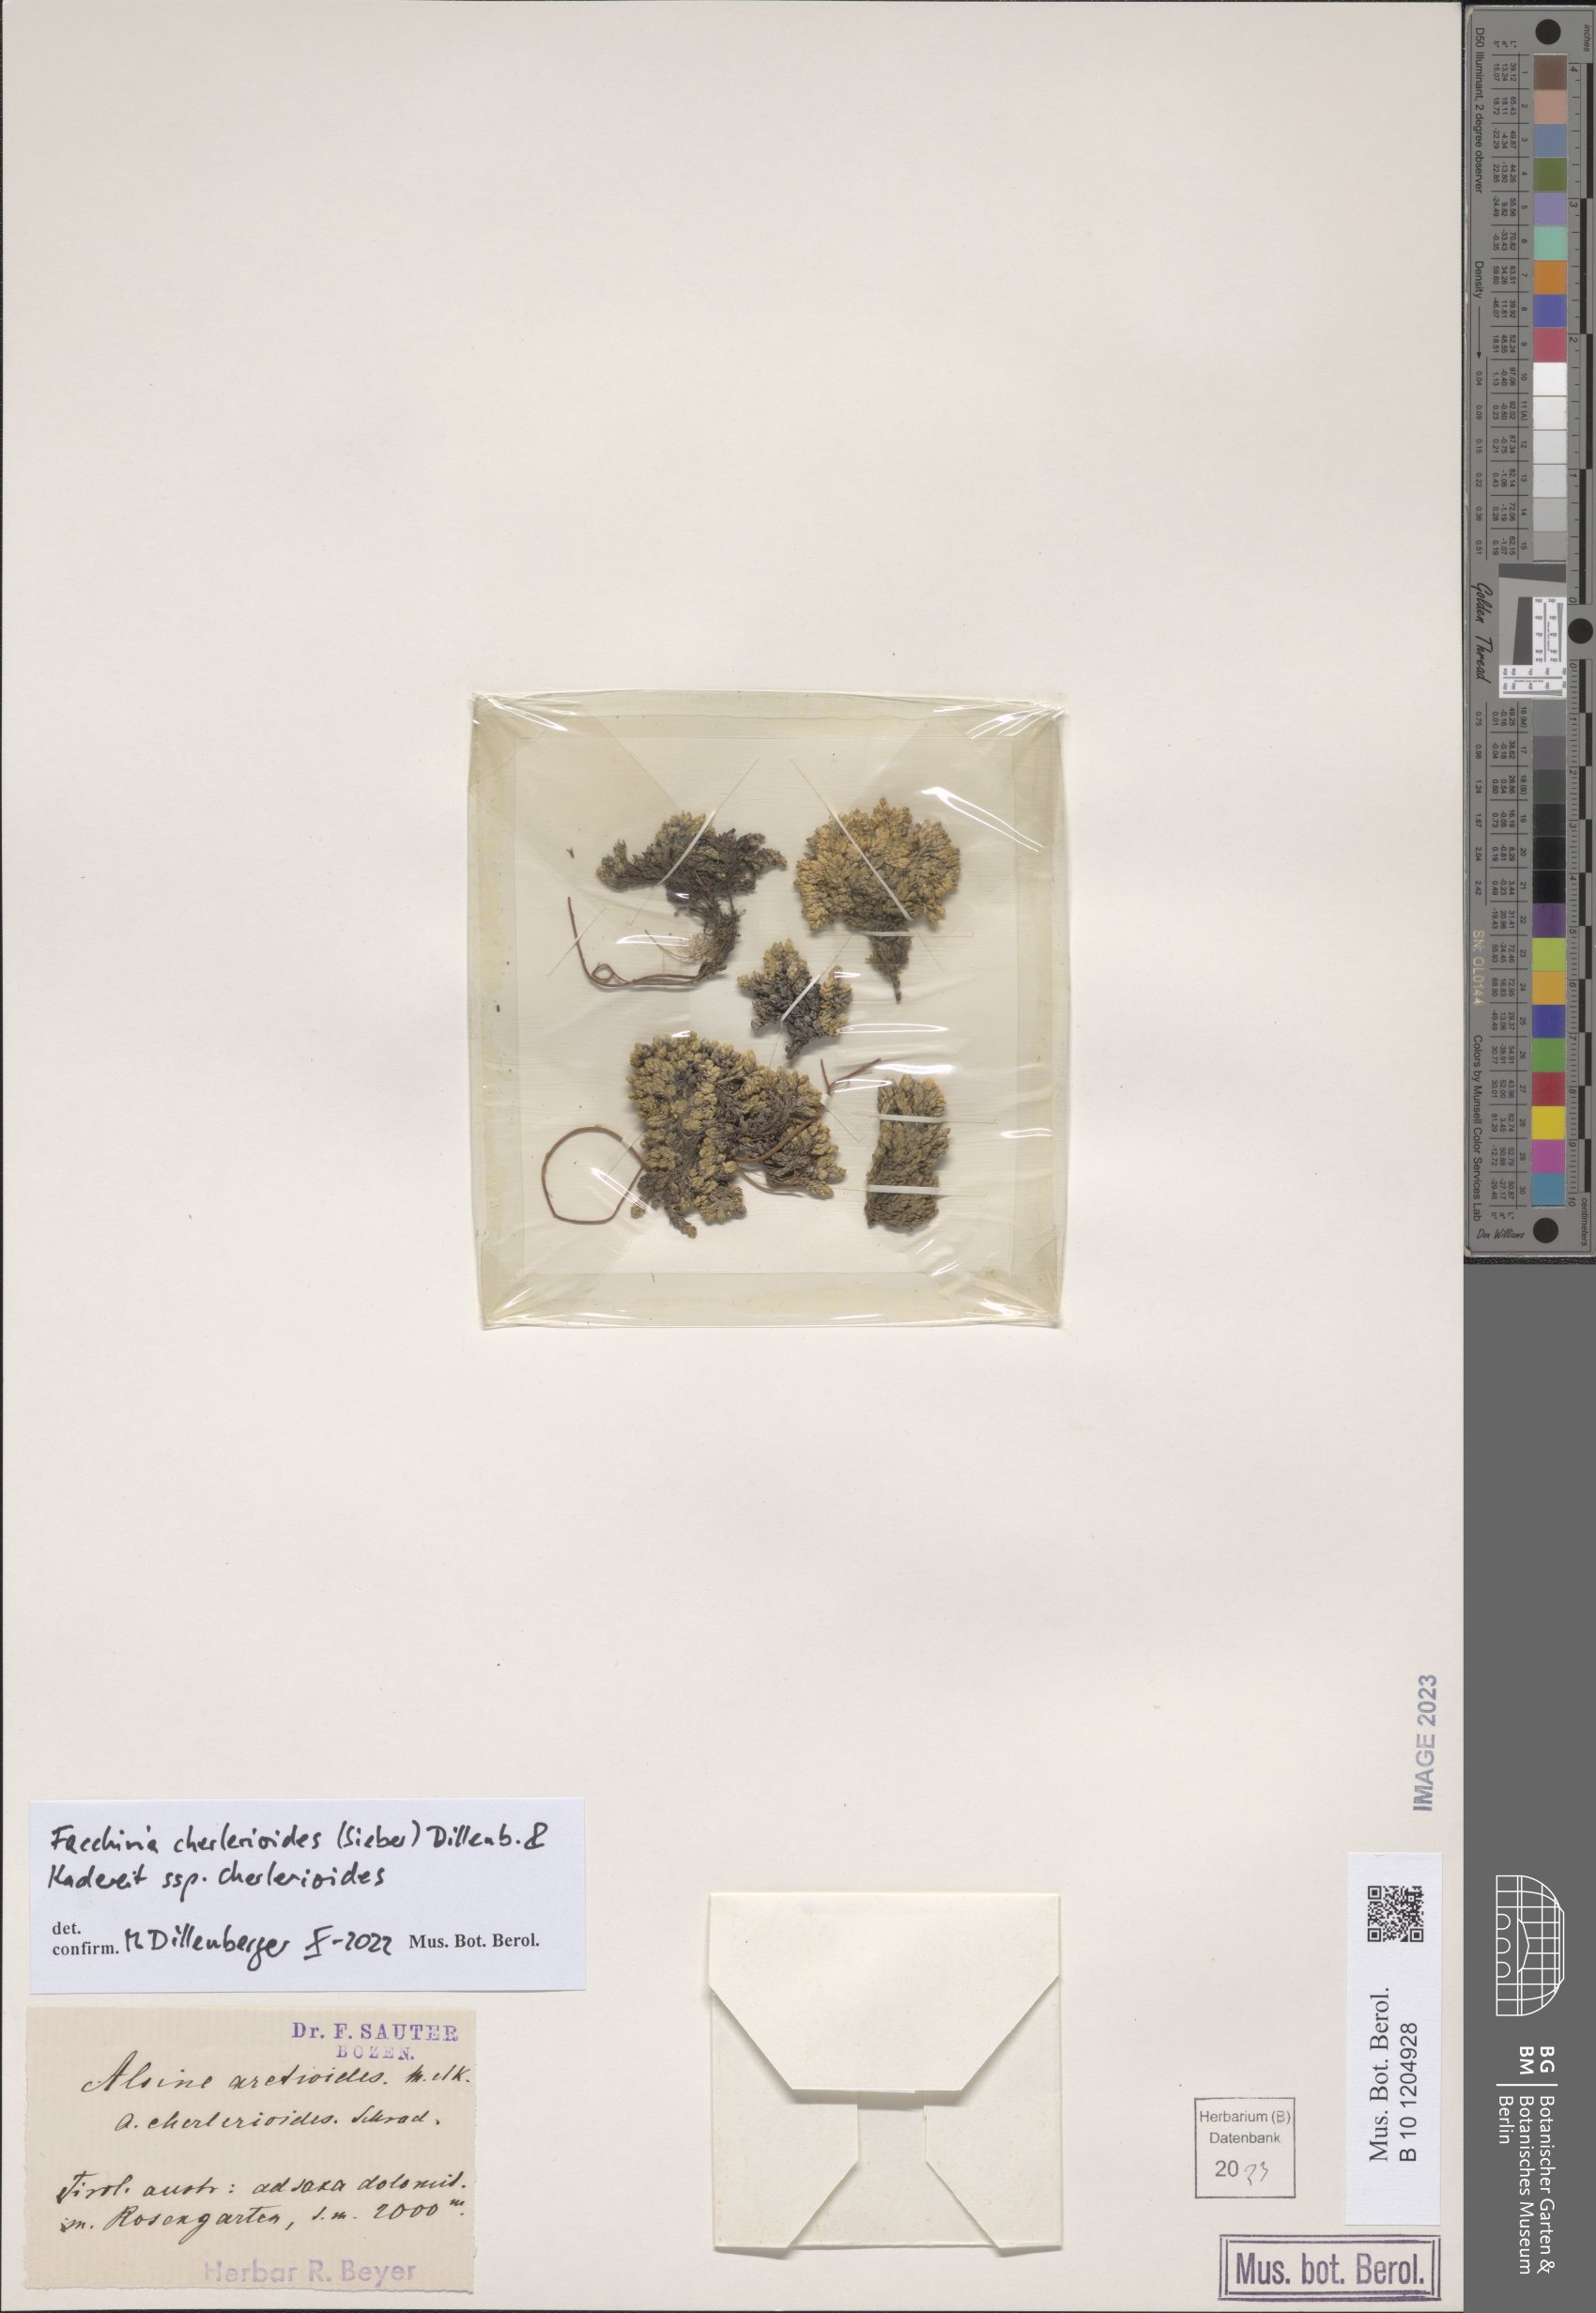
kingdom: Plantae
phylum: Tracheophyta
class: Magnoliopsida
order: Caryophyllales
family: Caryophyllaceae
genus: Facchinia
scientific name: Facchinia cherlerioides
